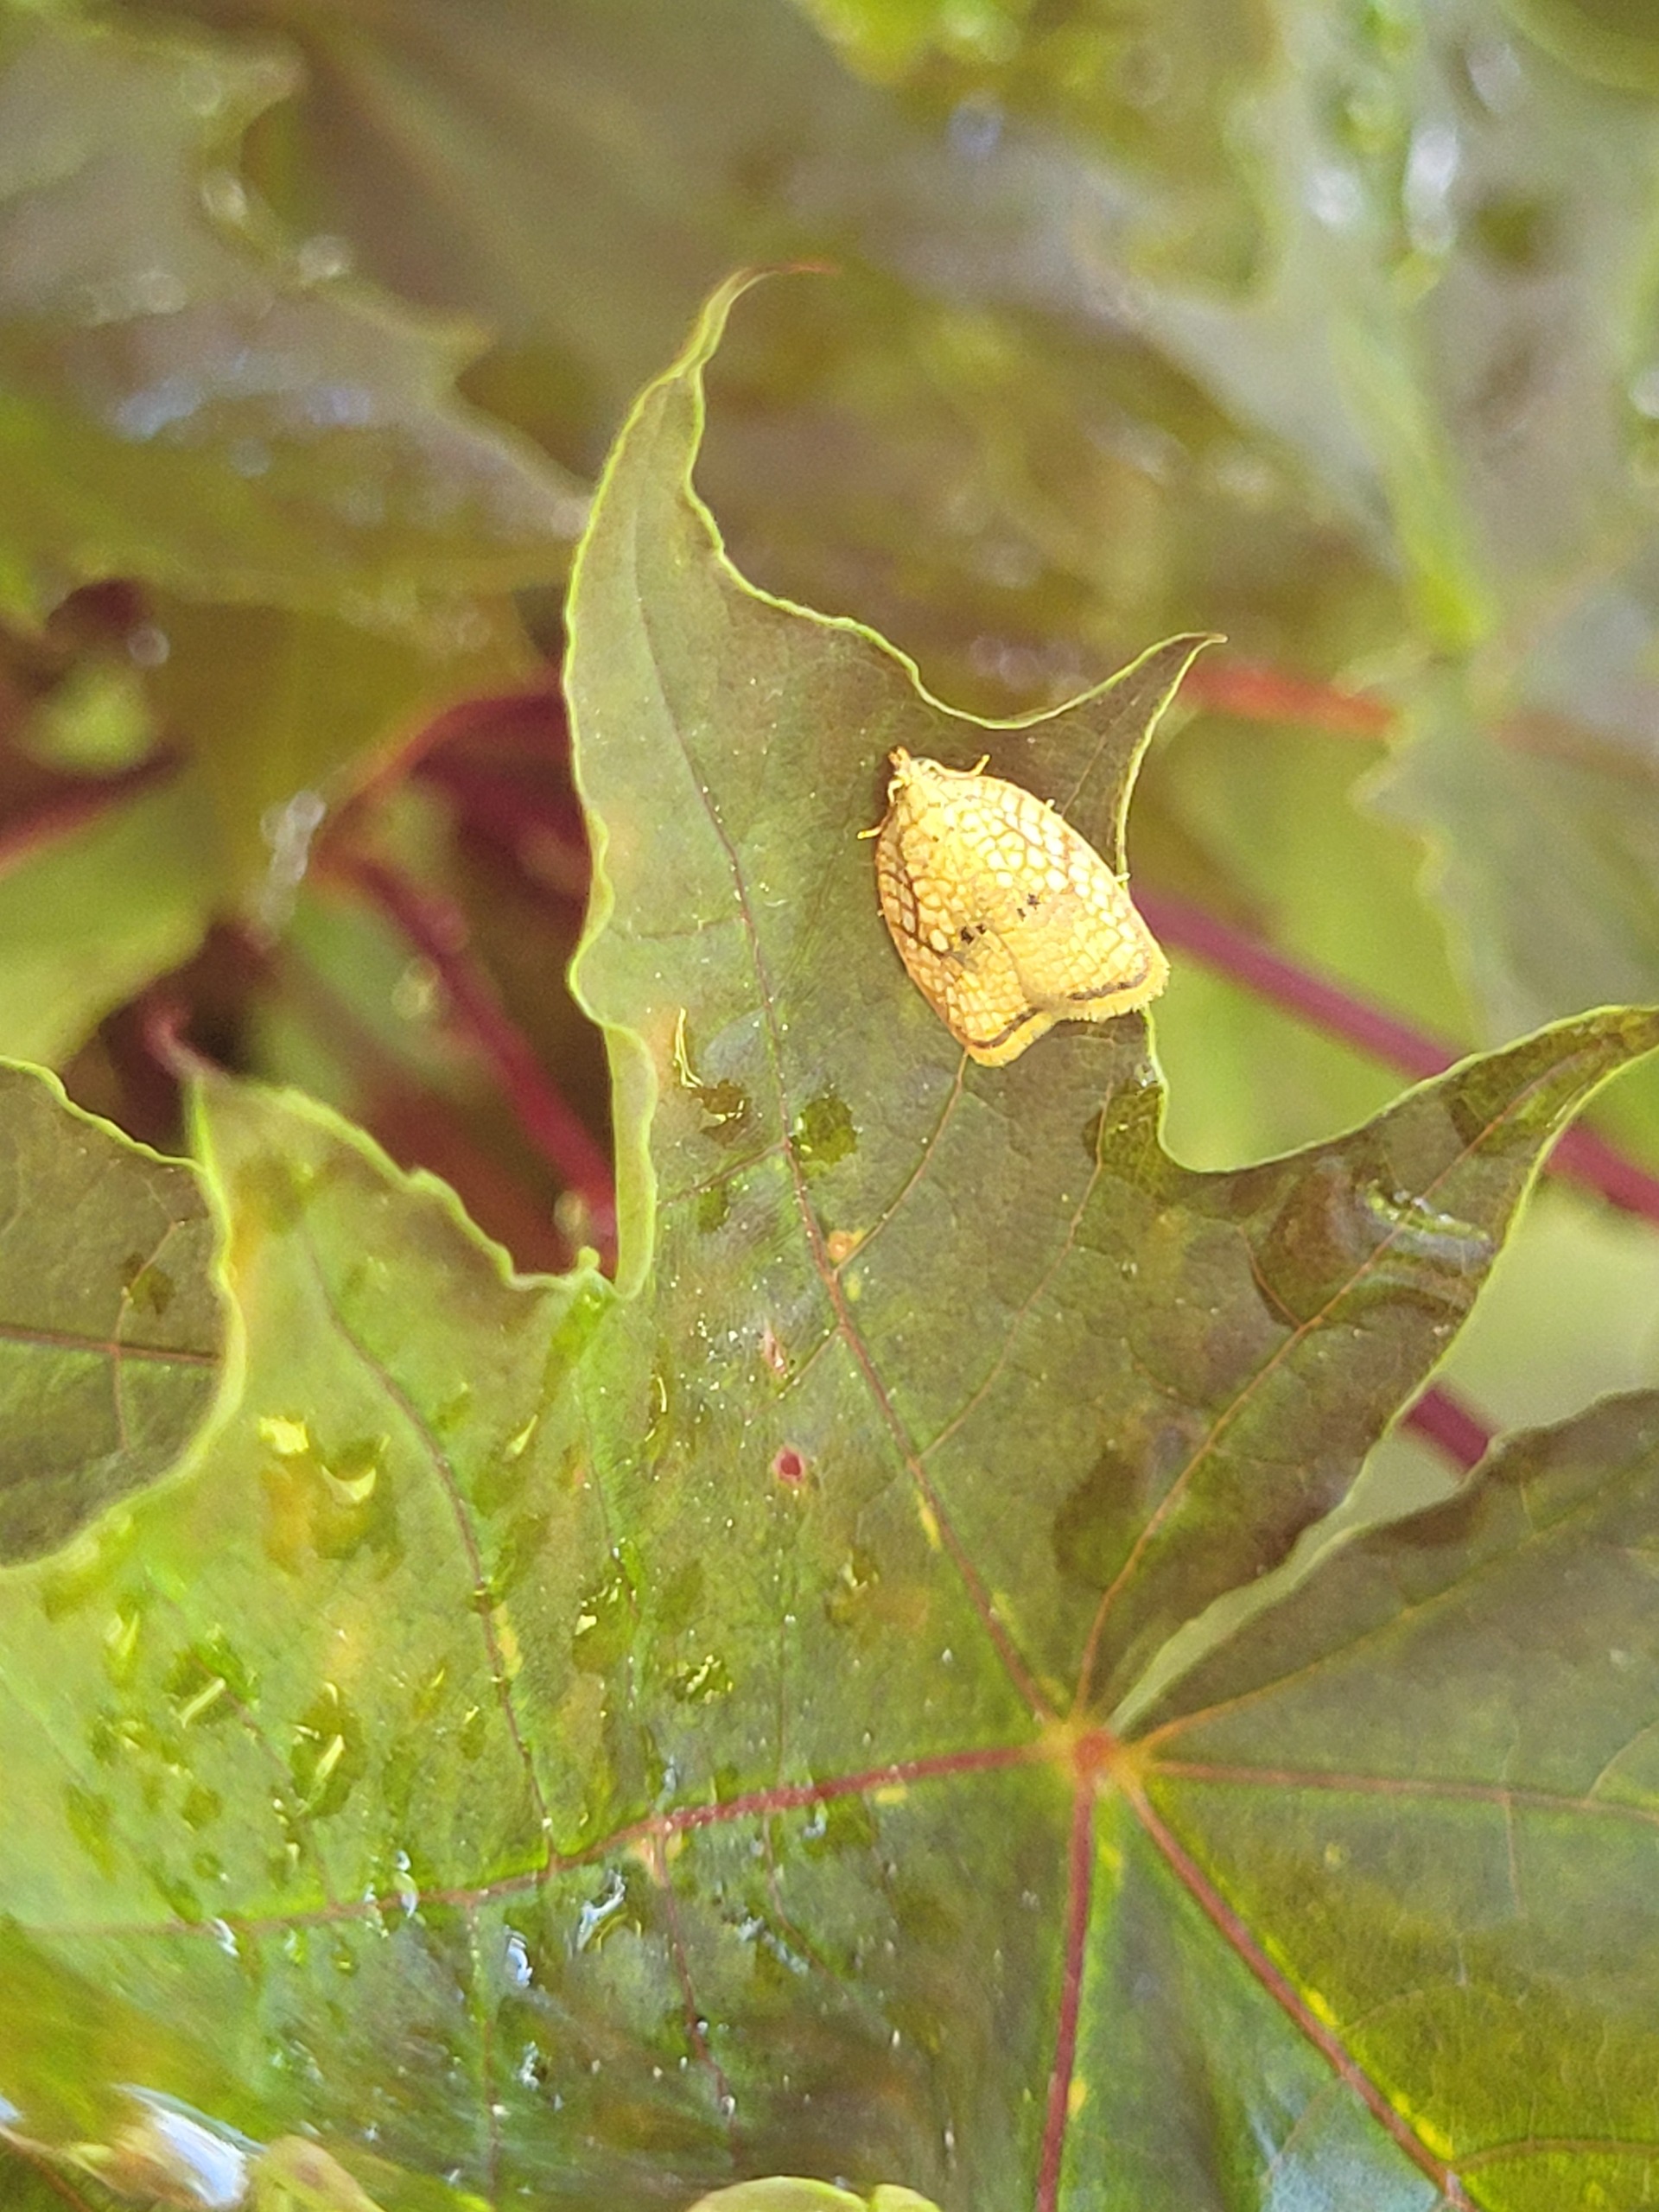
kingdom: Animalia
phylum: Arthropoda
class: Insecta
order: Lepidoptera
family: Tortricidae
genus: Acleris
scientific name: Acleris forsskaleana
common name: Gul ahornvikler
